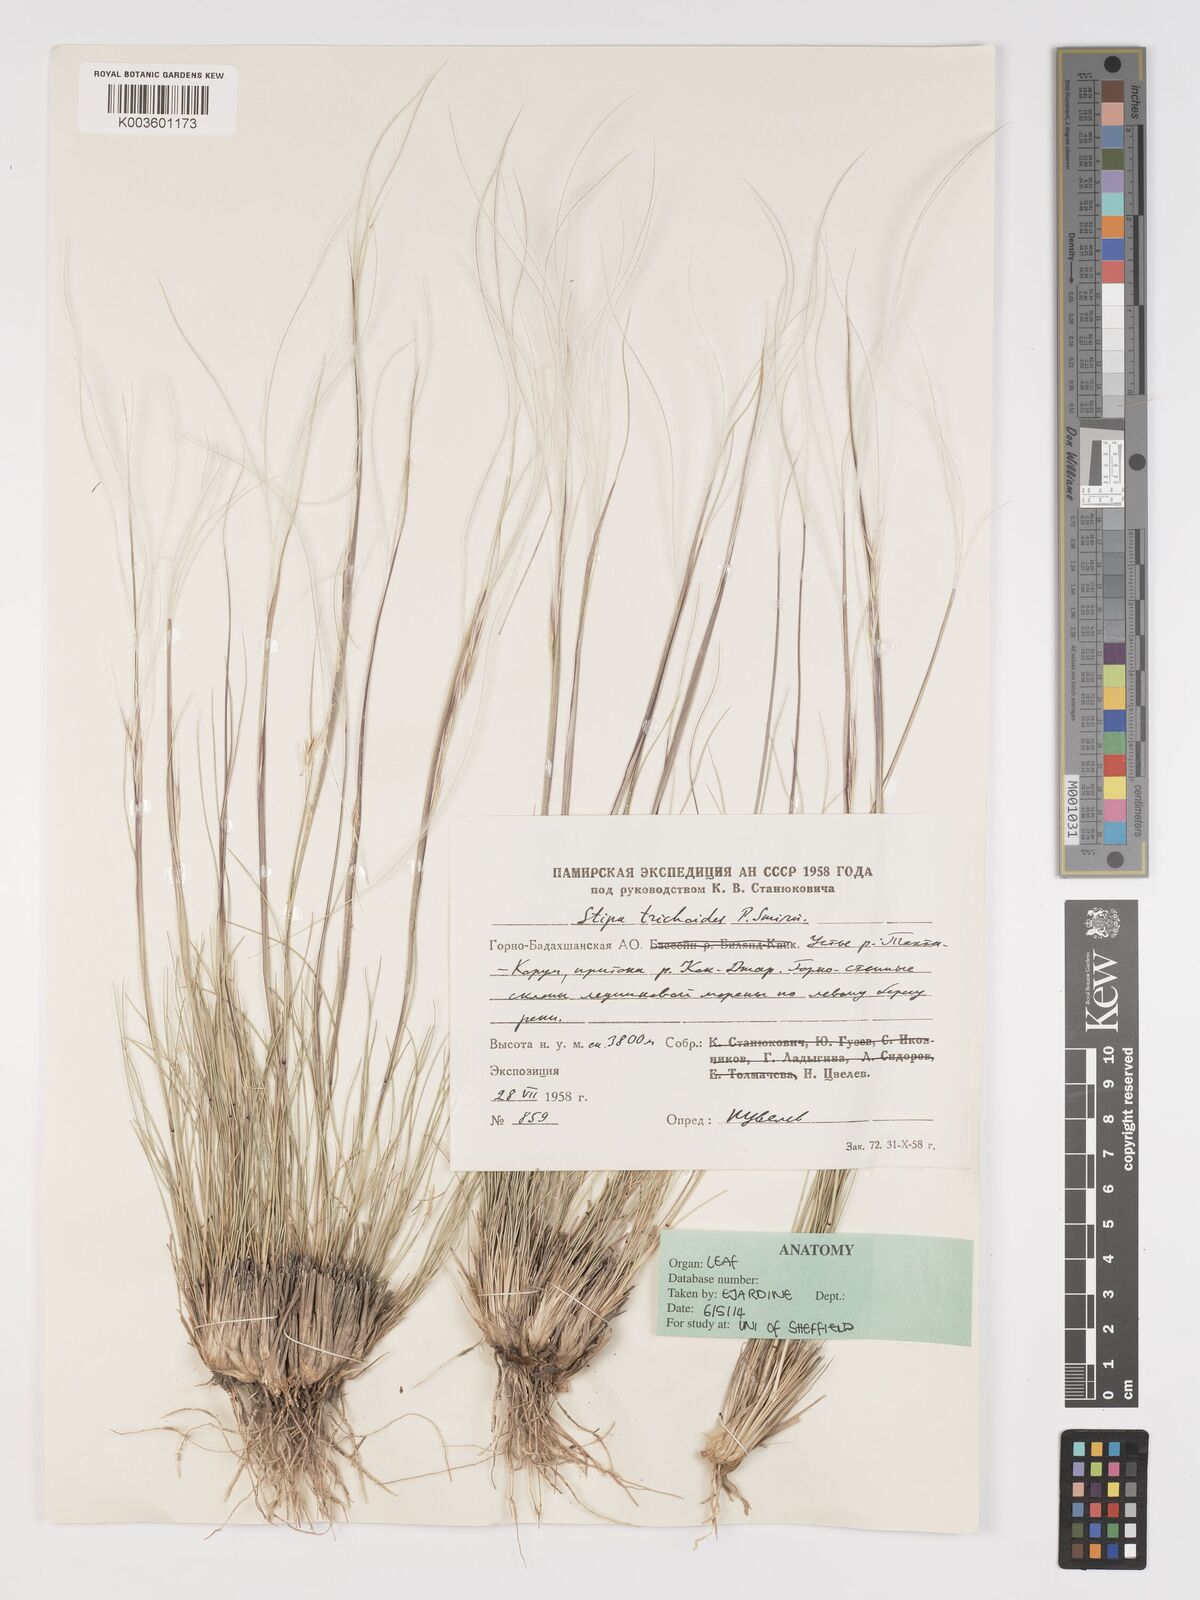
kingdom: Plantae
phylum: Tracheophyta
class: Liliopsida
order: Poales
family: Poaceae
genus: Stipa
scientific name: Stipa turkestanica
